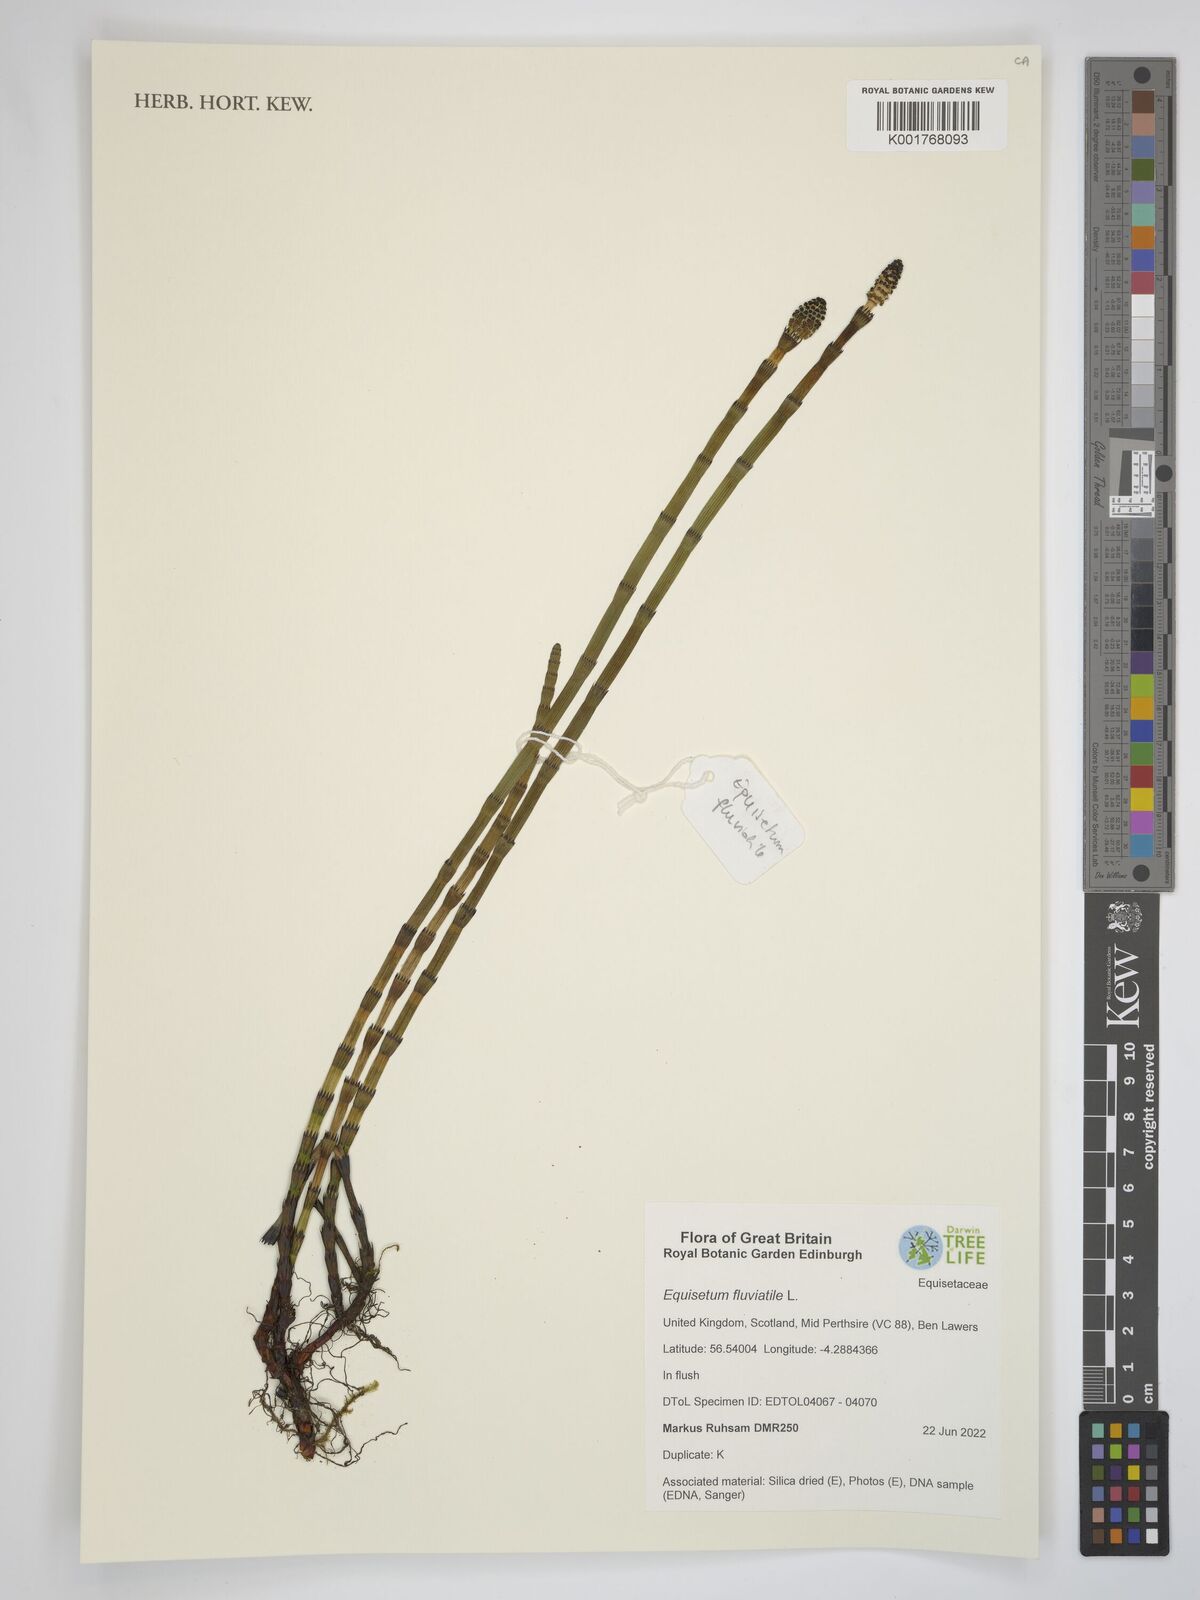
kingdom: Plantae
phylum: Tracheophyta
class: Polypodiopsida
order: Equisetales
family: Equisetaceae
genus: Equisetum
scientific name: Equisetum fluviatile
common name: Water horsetail
